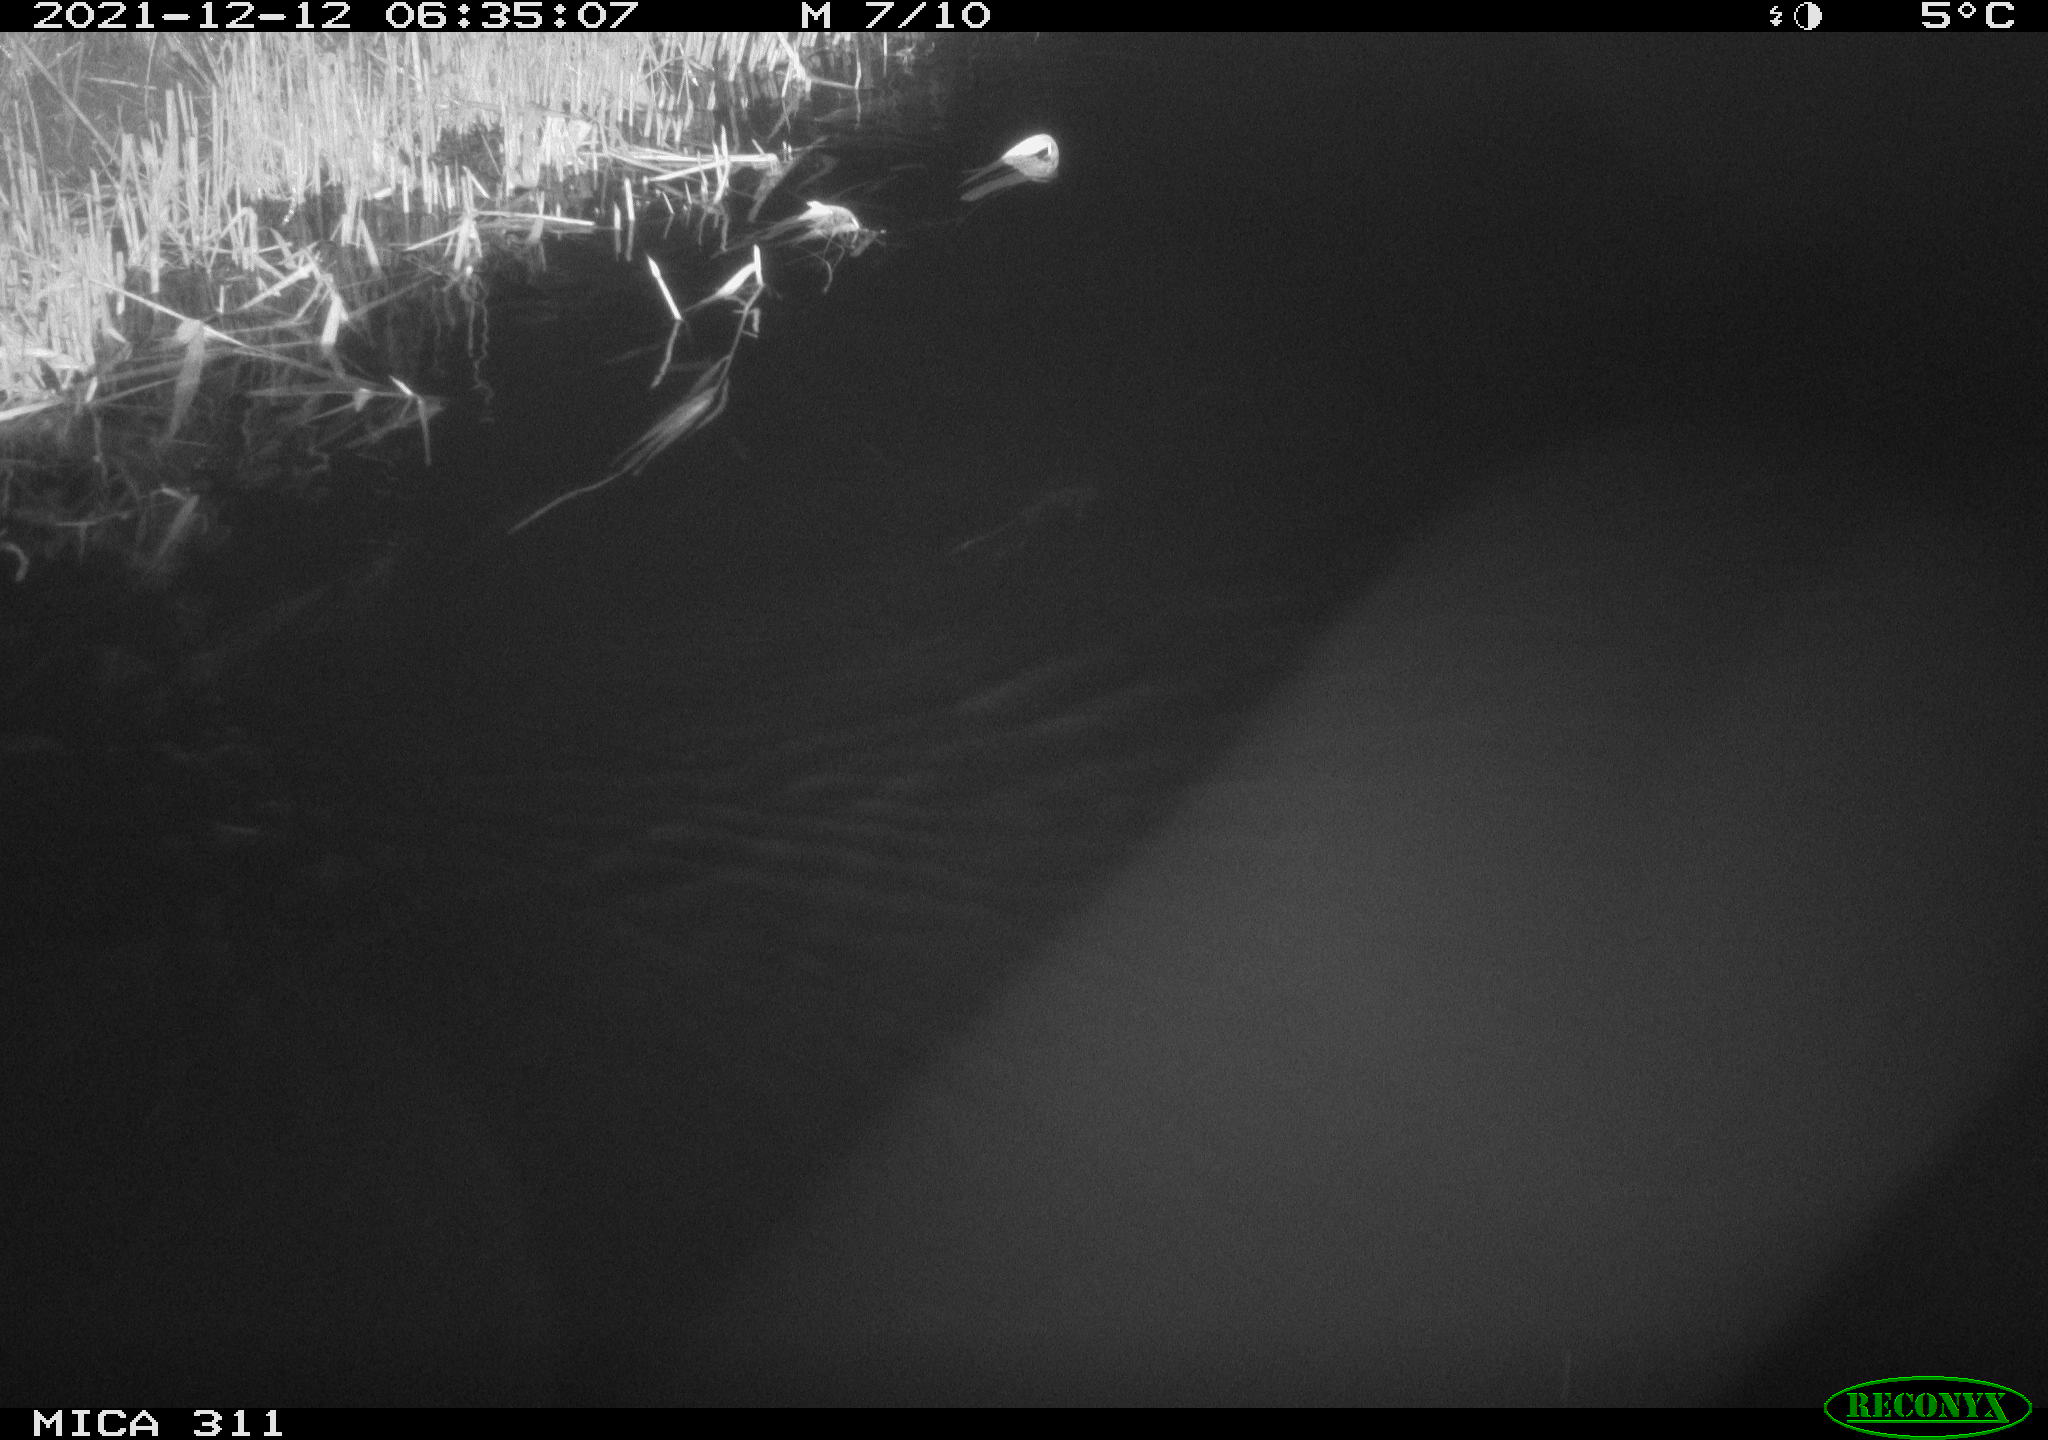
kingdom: Animalia
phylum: Chordata
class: Mammalia
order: Rodentia
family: Muridae
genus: Rattus
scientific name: Rattus norvegicus
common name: Brown rat
